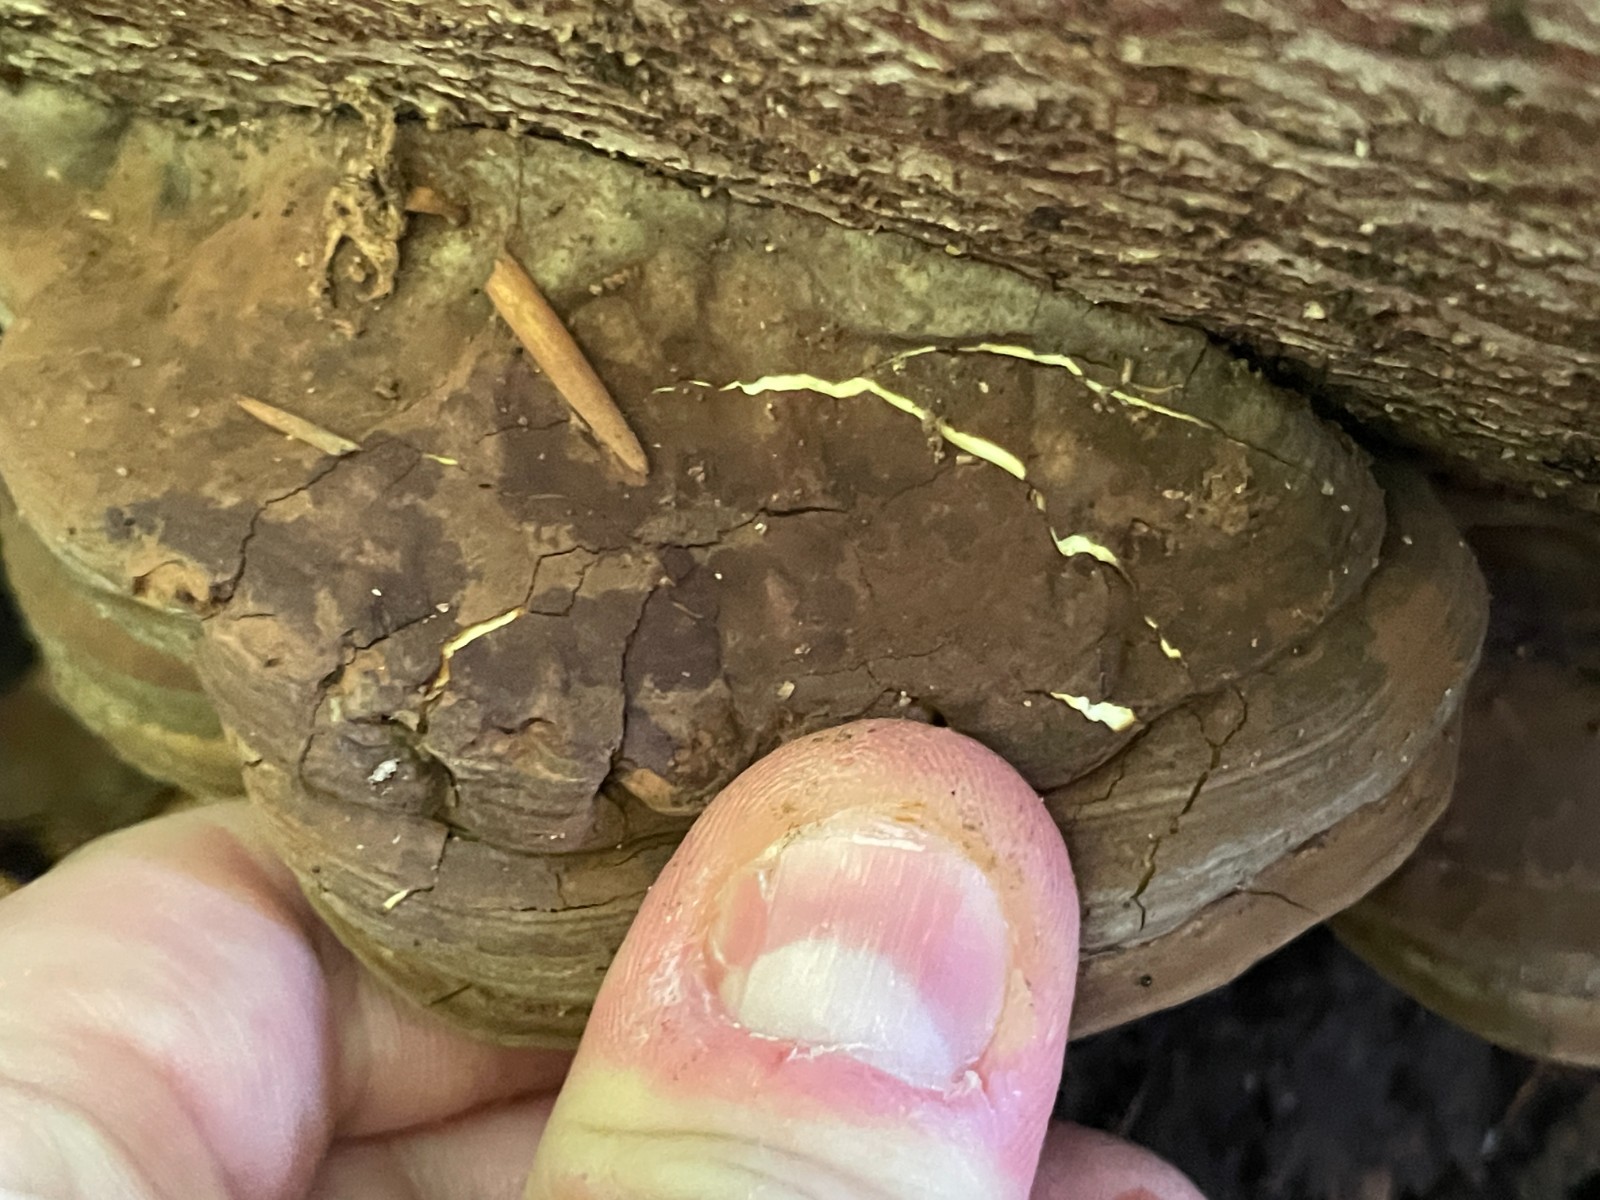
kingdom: Fungi
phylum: Basidiomycota
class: Agaricomycetes
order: Polyporales
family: Polyporaceae
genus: Ganoderma
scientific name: Ganoderma applanatum
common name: flad lakporesvamp
